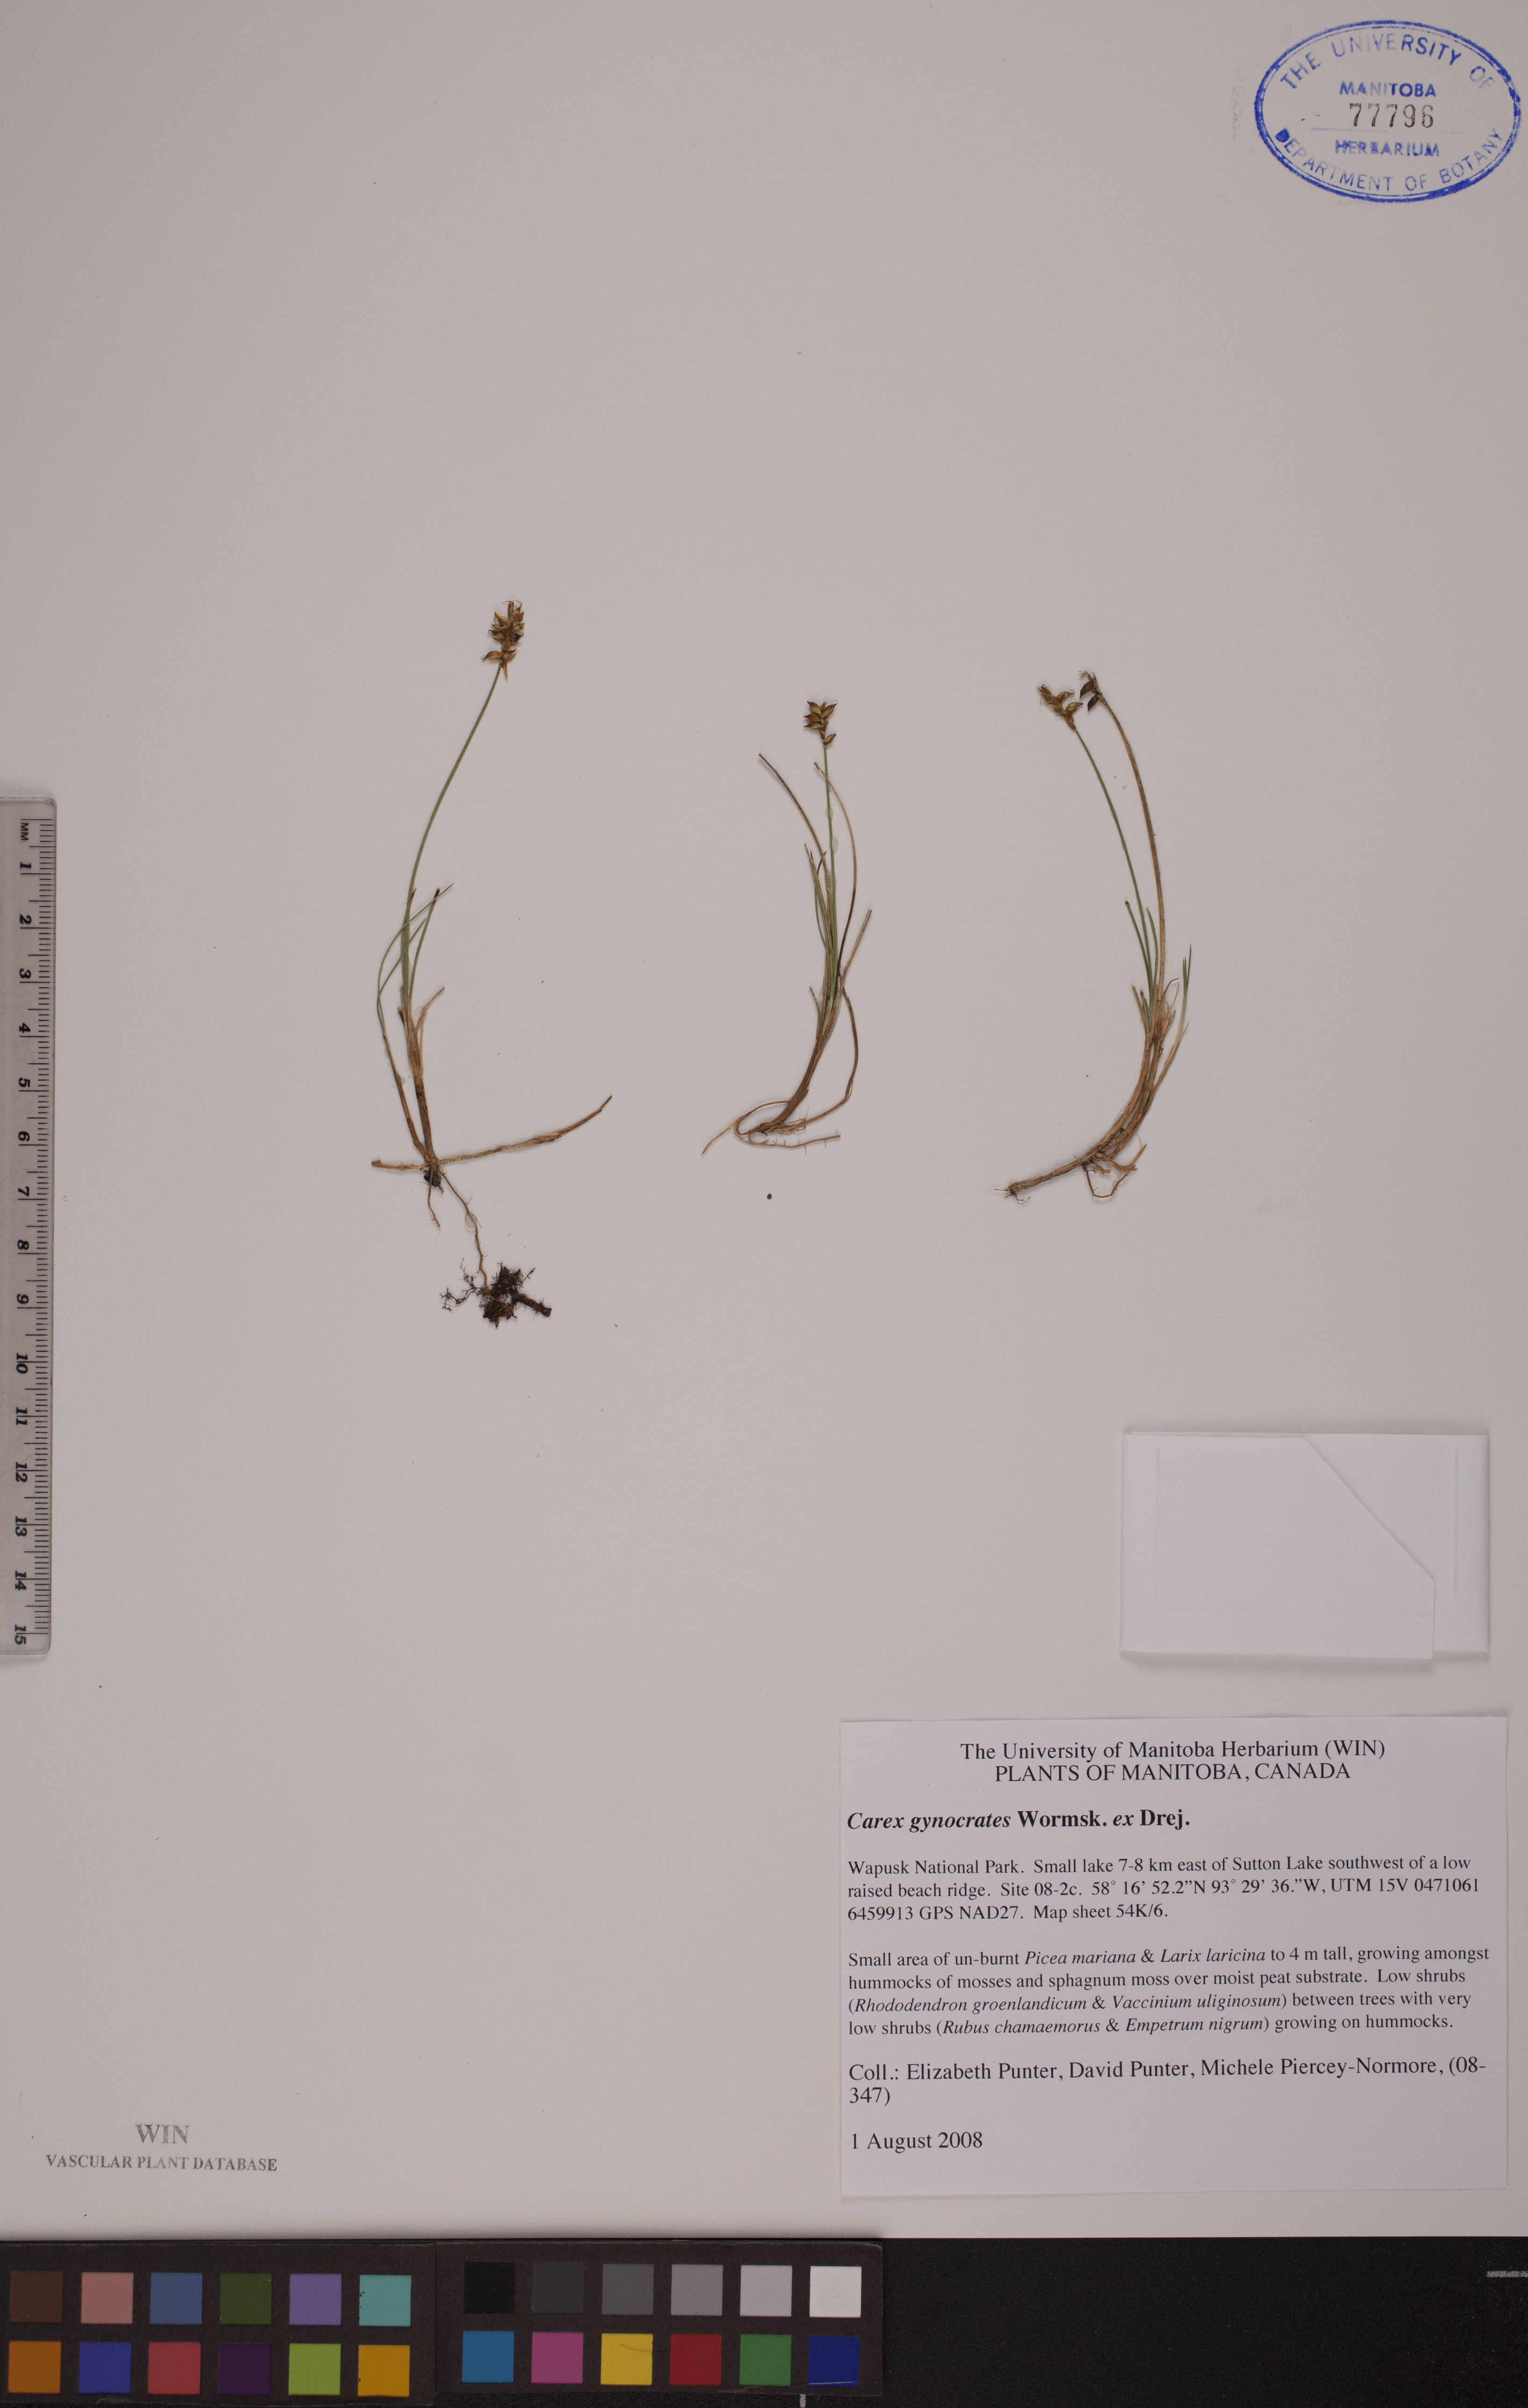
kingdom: Plantae
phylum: Tracheophyta
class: Liliopsida
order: Poales
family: Cyperaceae
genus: Carex
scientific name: Carex nardina
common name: Nard sedge
